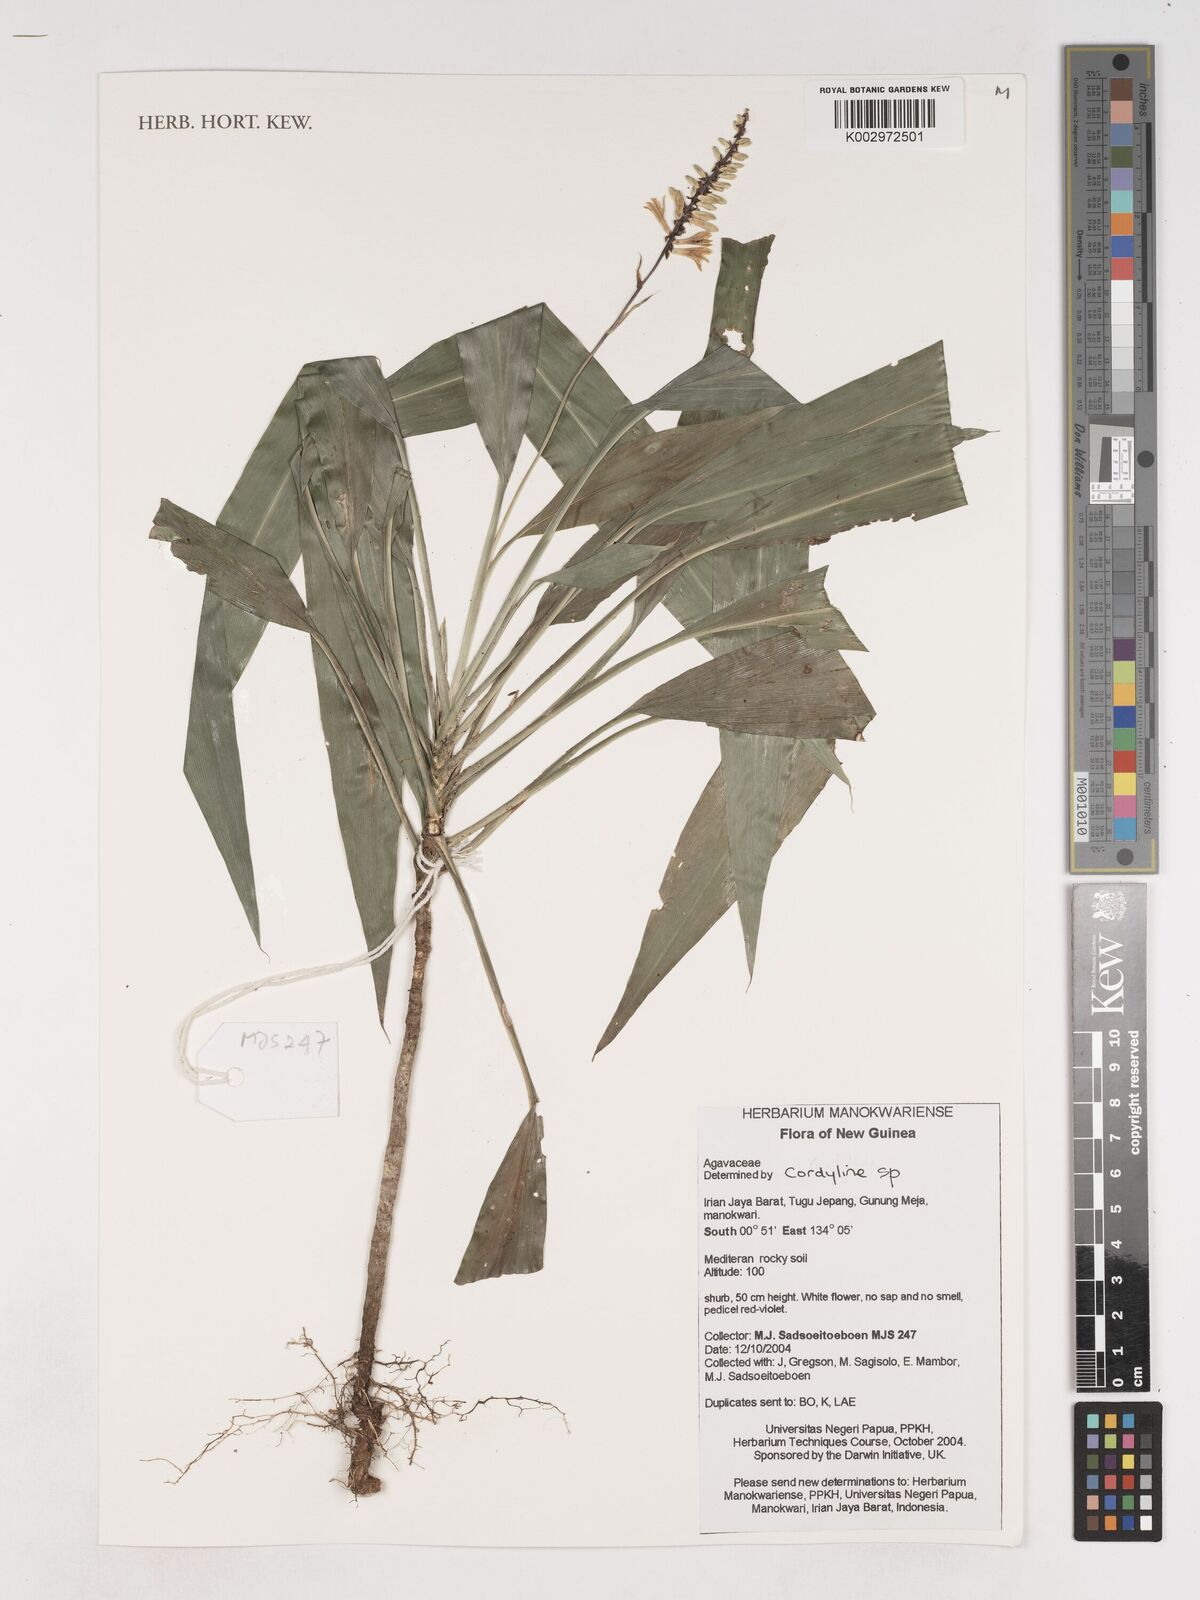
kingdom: Plantae
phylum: Tracheophyta
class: Liliopsida
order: Asparagales
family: Asparagaceae
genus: Cordyline
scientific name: Cordyline
